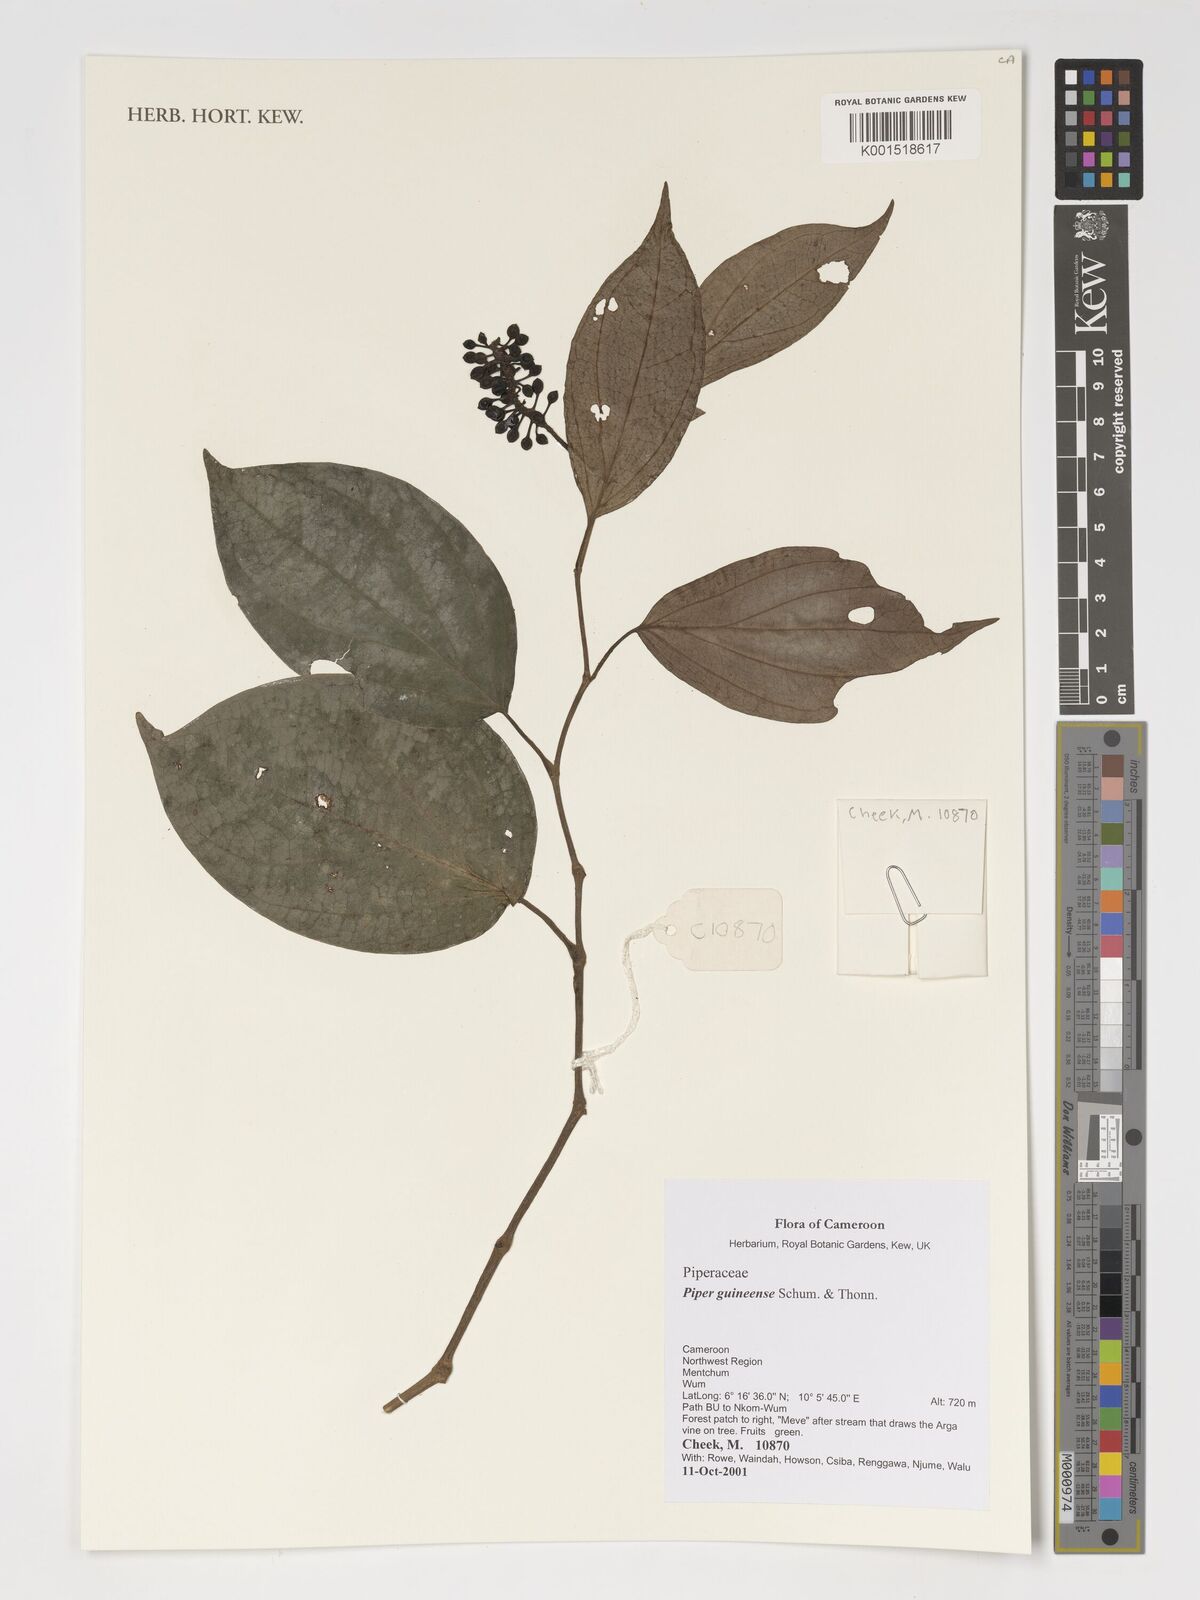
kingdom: Plantae
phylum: Tracheophyta
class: Magnoliopsida
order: Piperales
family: Piperaceae
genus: Piper
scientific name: Piper guineense
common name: Benin pepper
